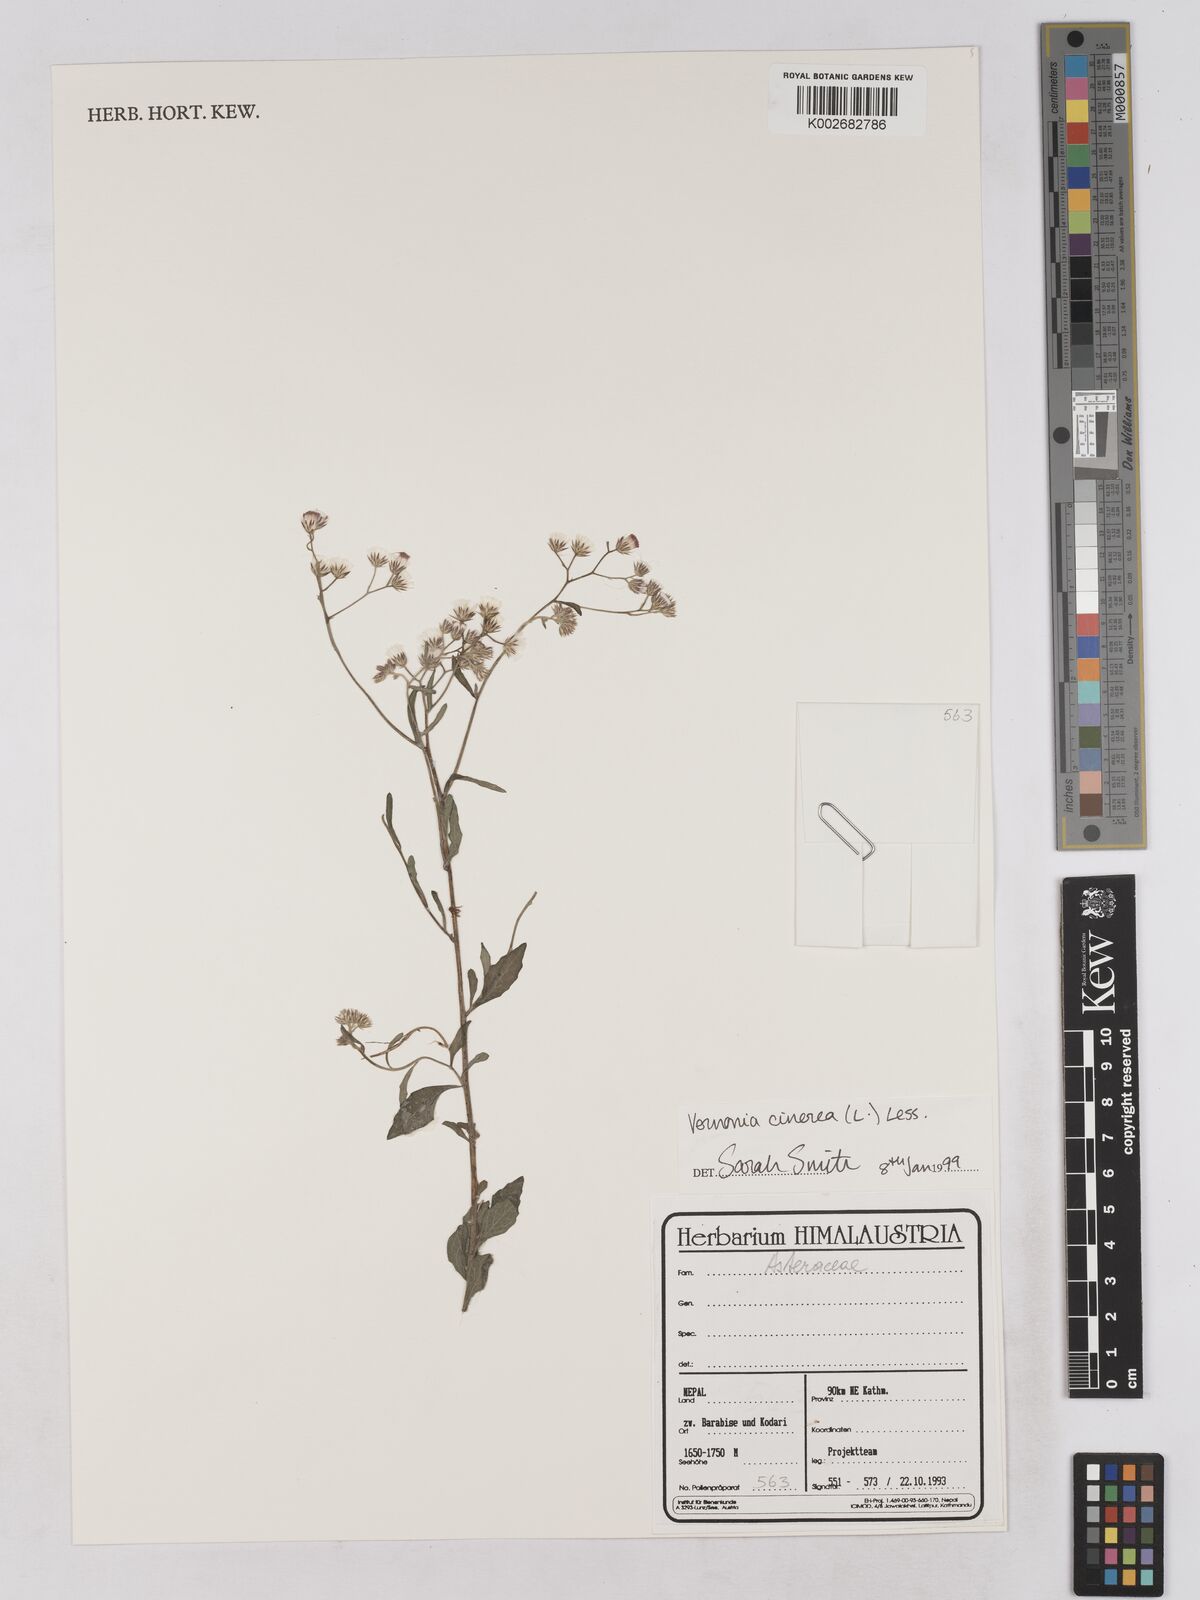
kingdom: Plantae
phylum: Tracheophyta
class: Magnoliopsida
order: Asterales
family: Asteraceae
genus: Cyanthillium
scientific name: Cyanthillium cinereum
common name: Little ironweed
